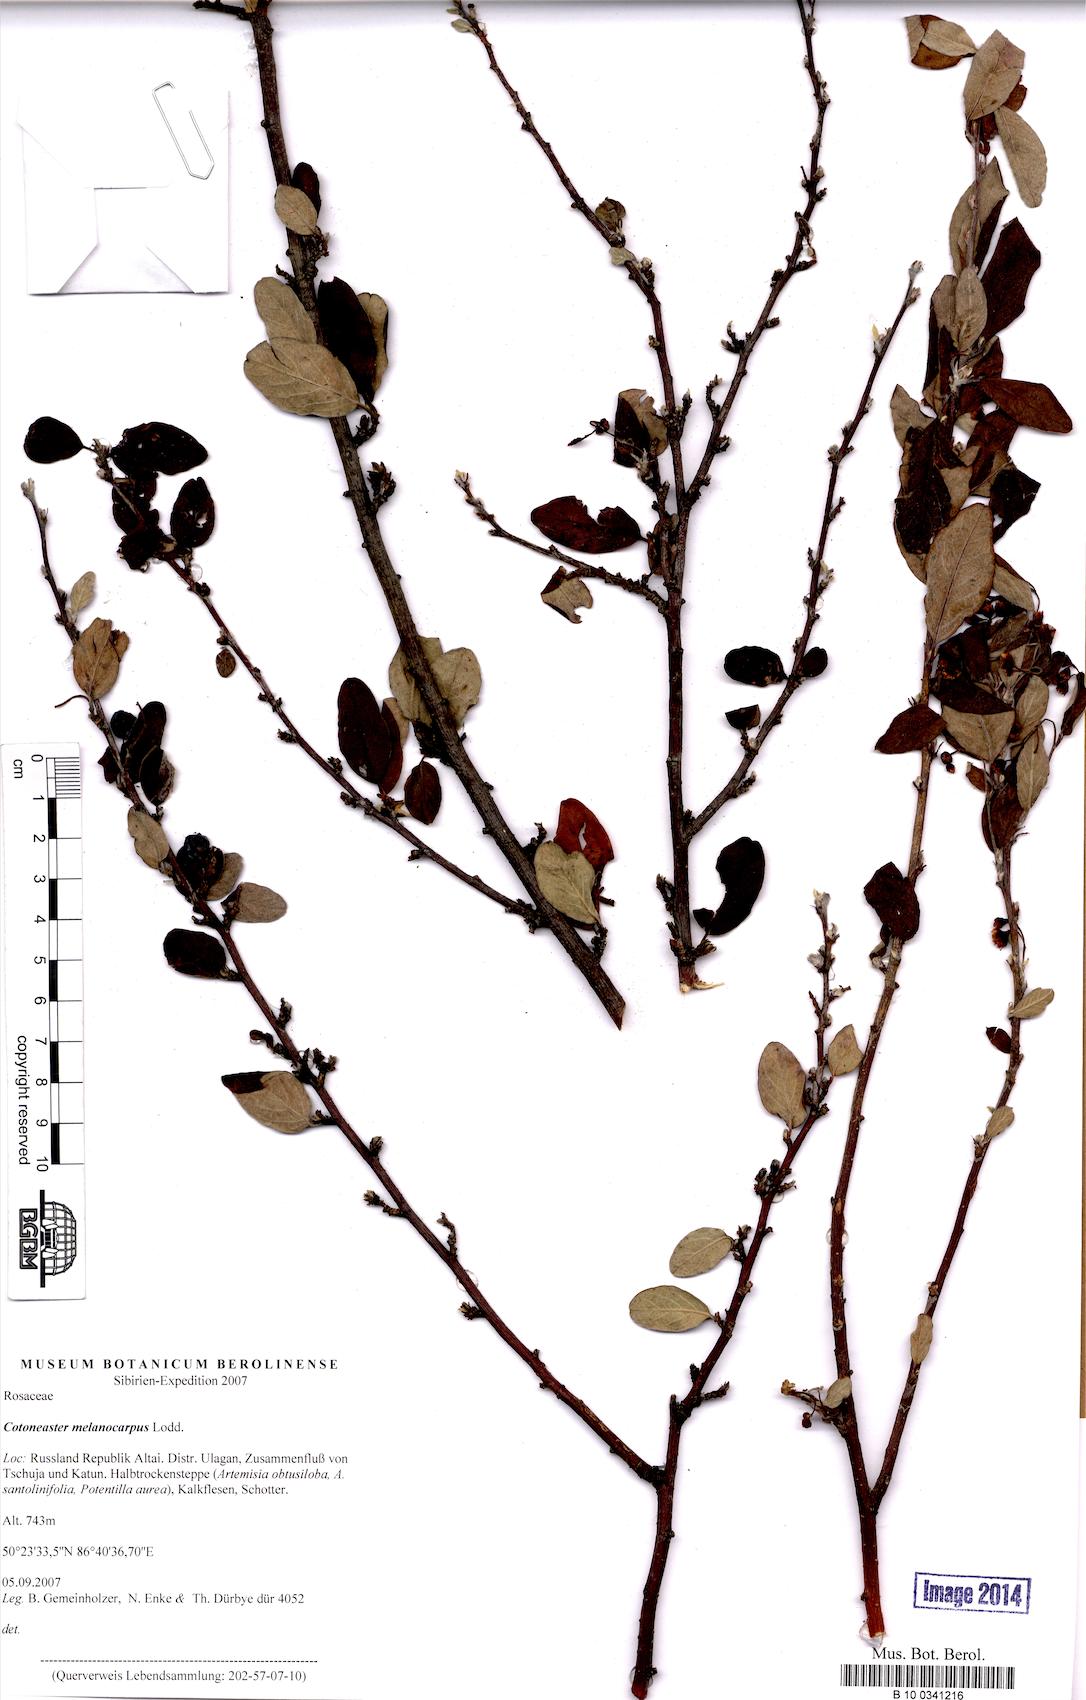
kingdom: Plantae
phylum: Tracheophyta
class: Magnoliopsida
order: Rosales
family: Rosaceae
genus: Cotoneaster
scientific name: Cotoneaster melanocarpus
